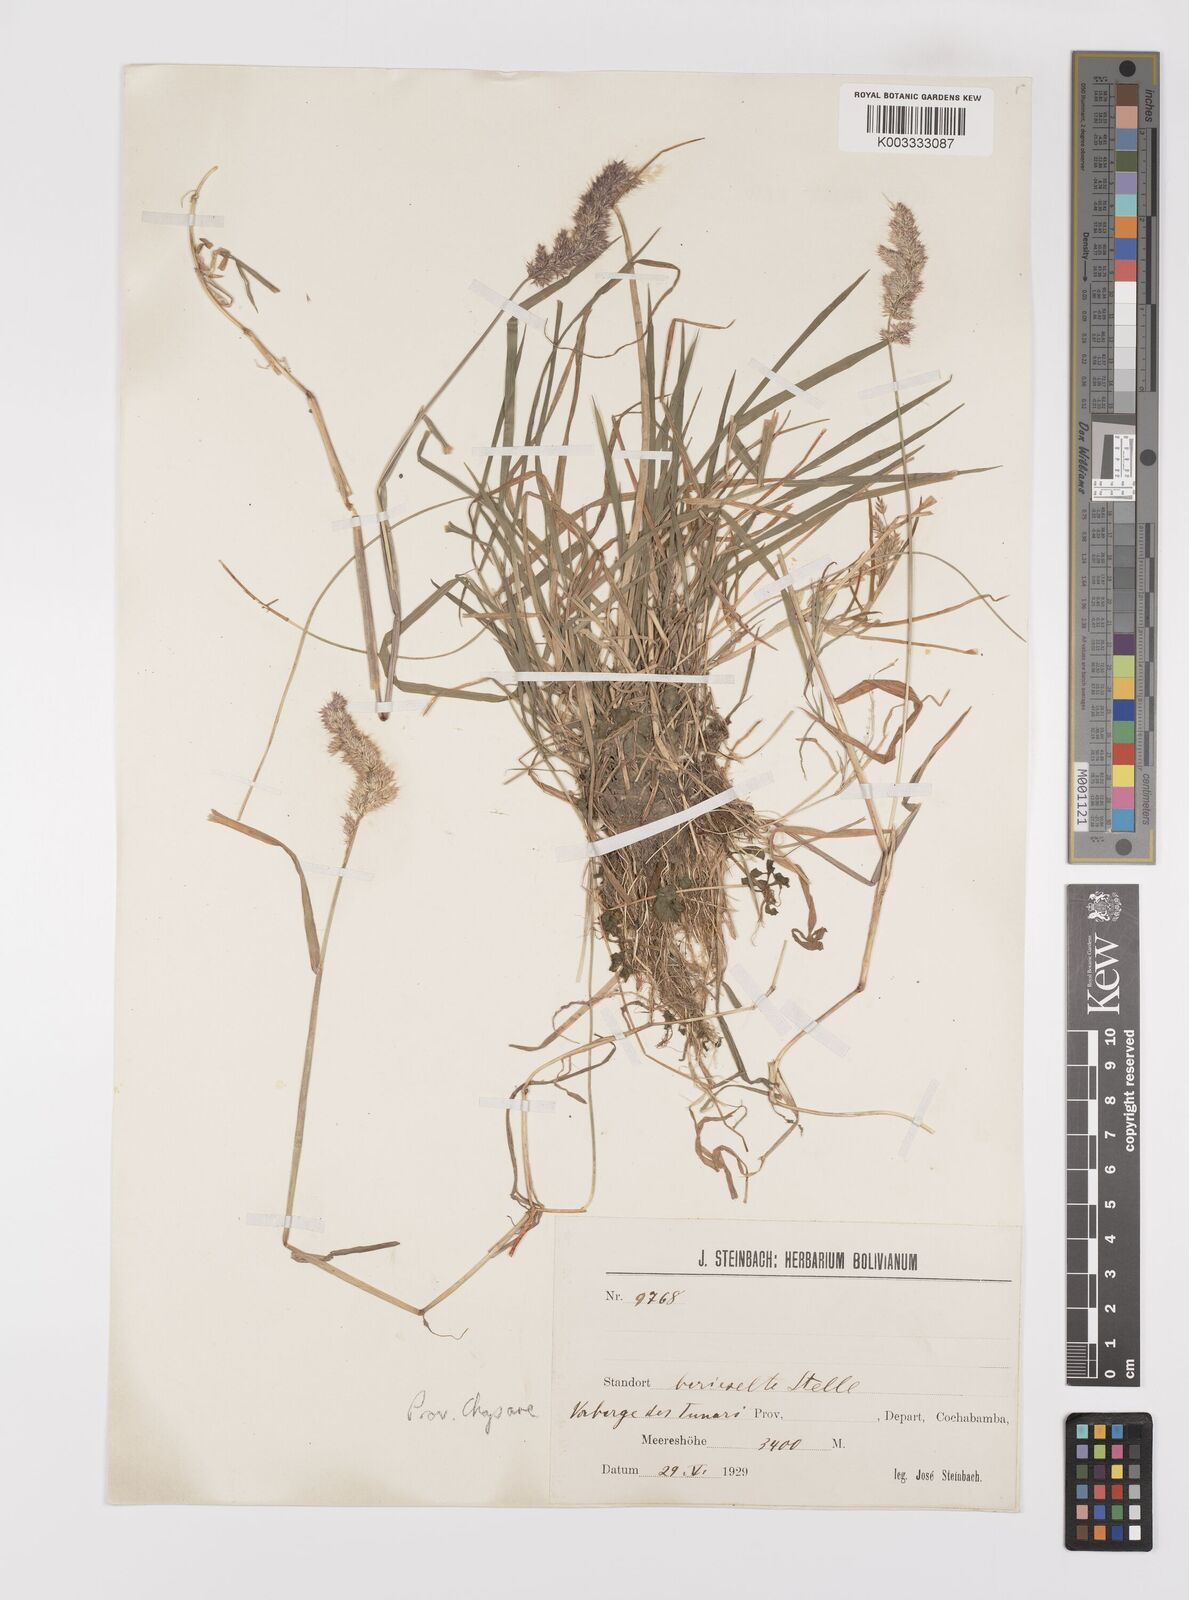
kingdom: Plantae
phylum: Tracheophyta
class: Liliopsida
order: Poales
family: Poaceae
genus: Polypogon
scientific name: Polypogon interruptus
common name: Ditch polypogon
